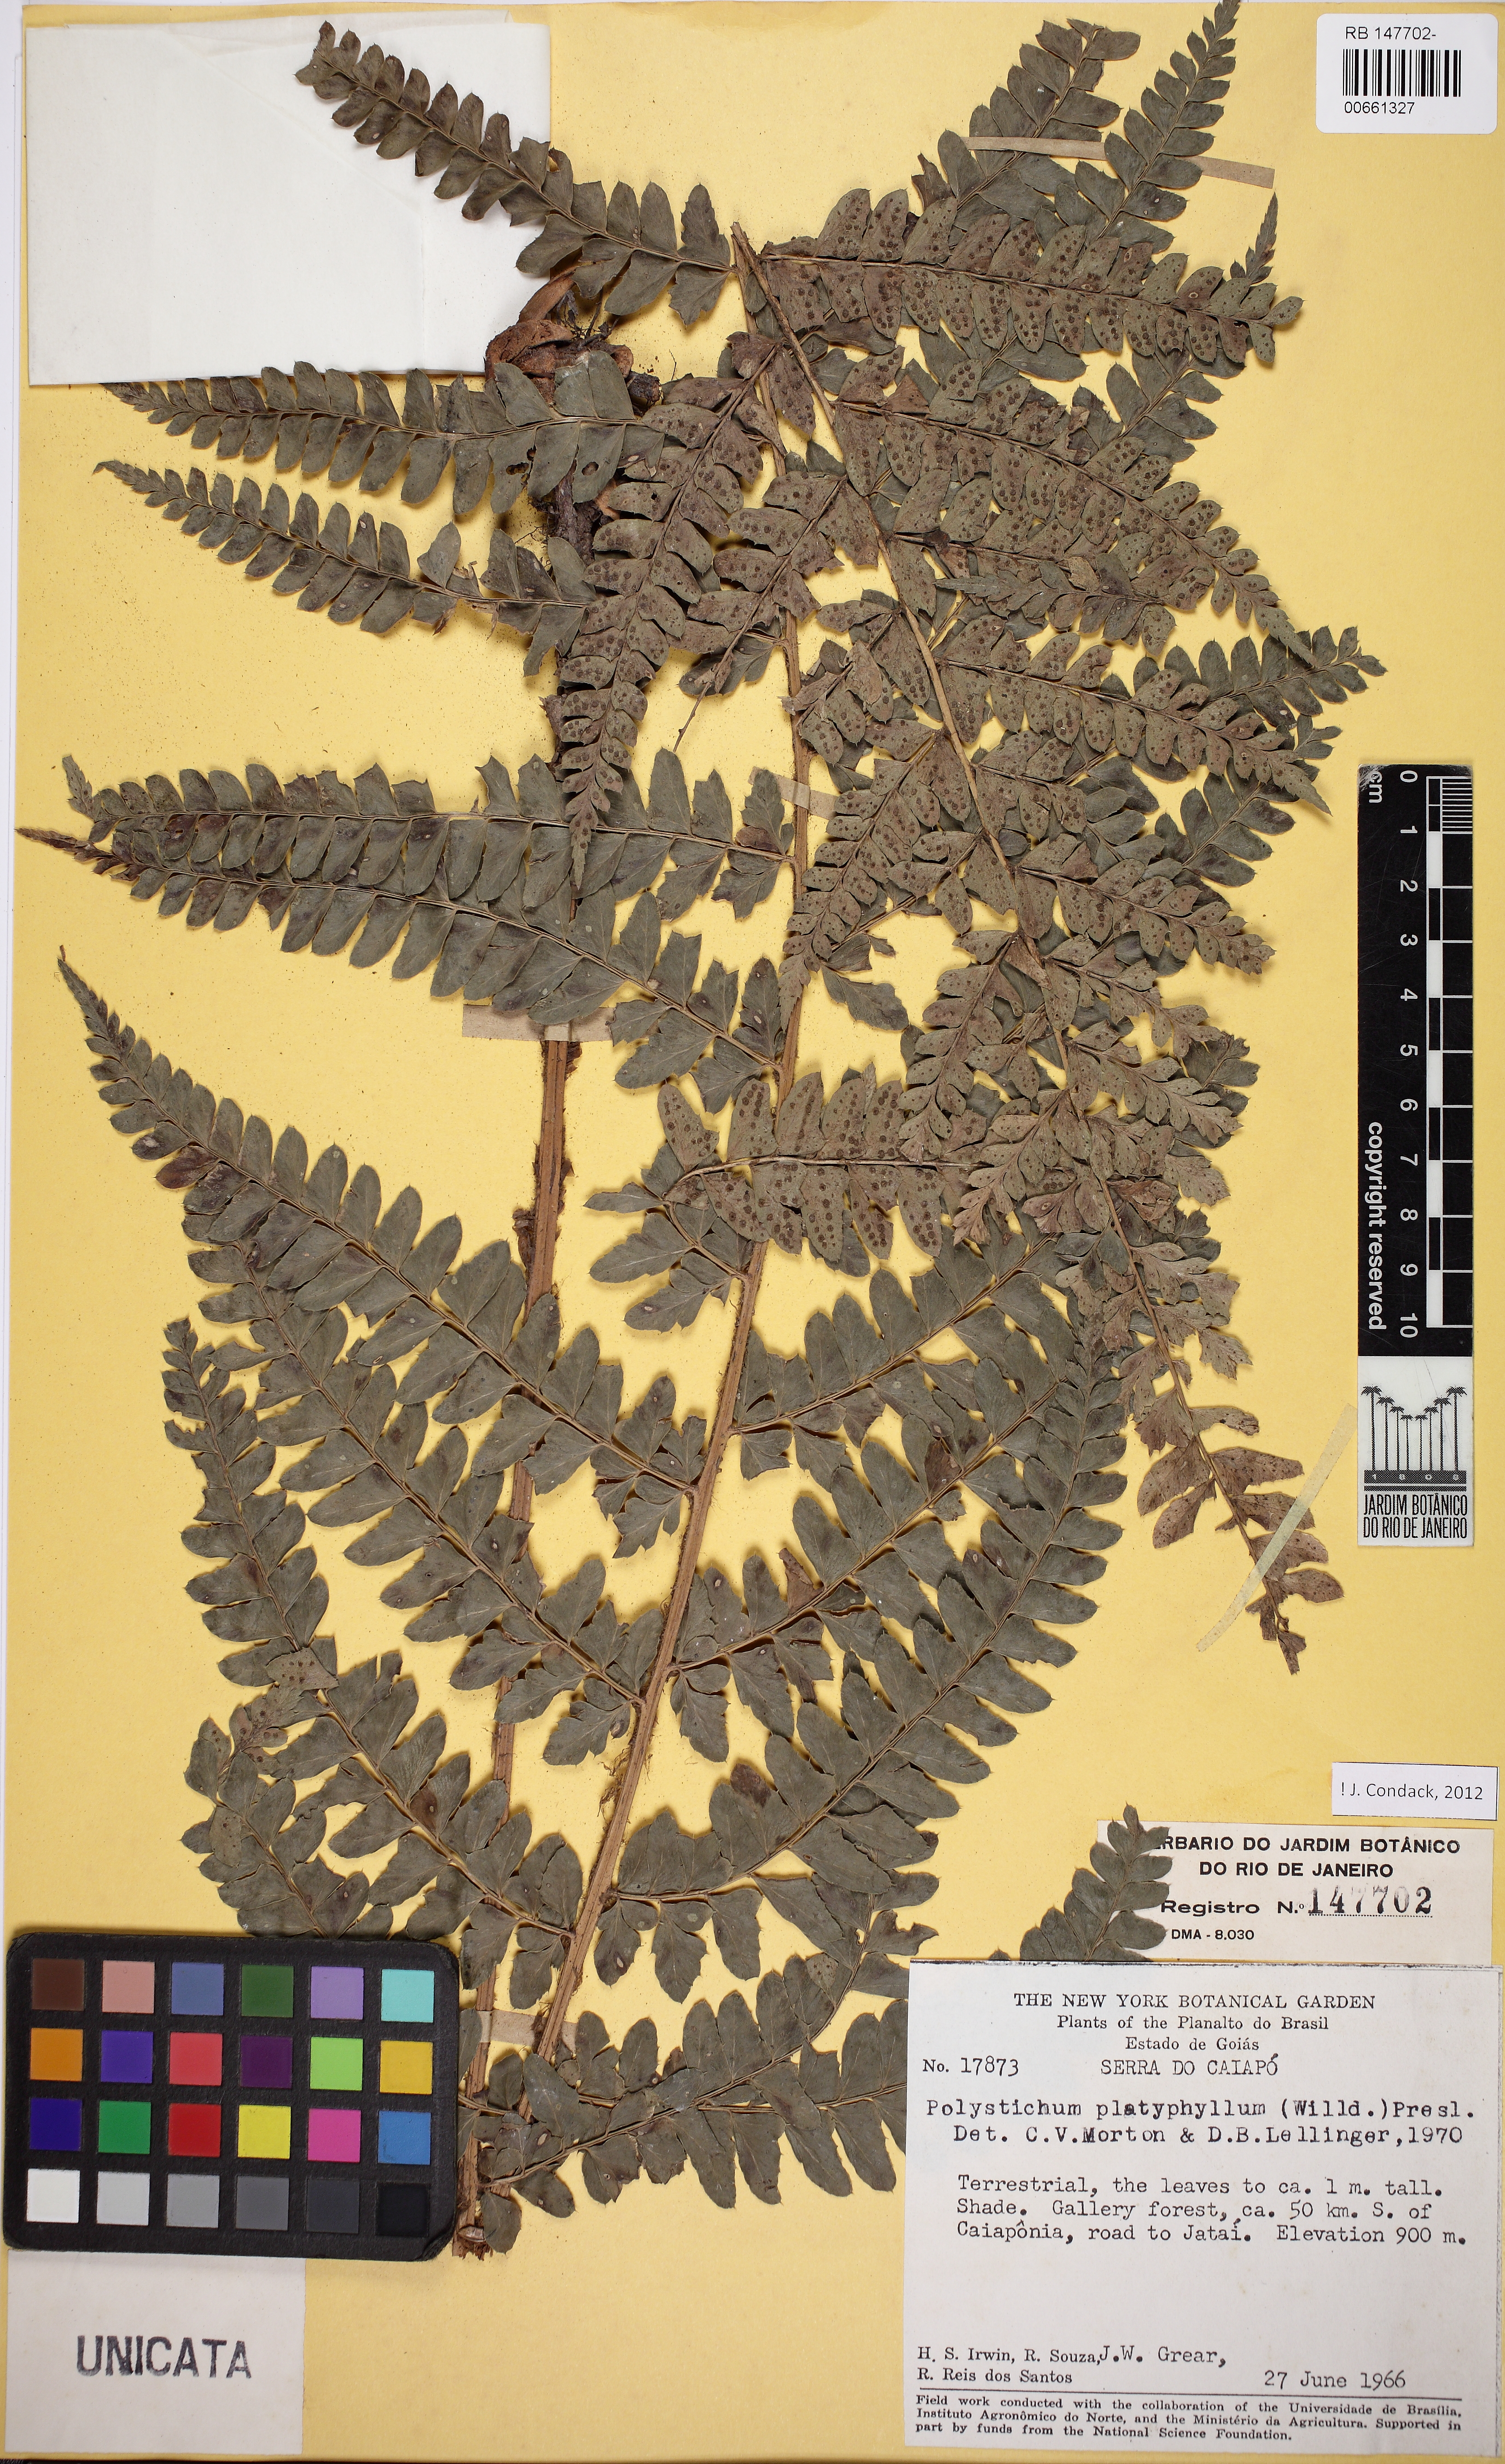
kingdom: Plantae
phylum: Tracheophyta
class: Polypodiopsida
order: Polypodiales
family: Dryopteridaceae
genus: Polystichum
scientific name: Polystichum platyphyllum
